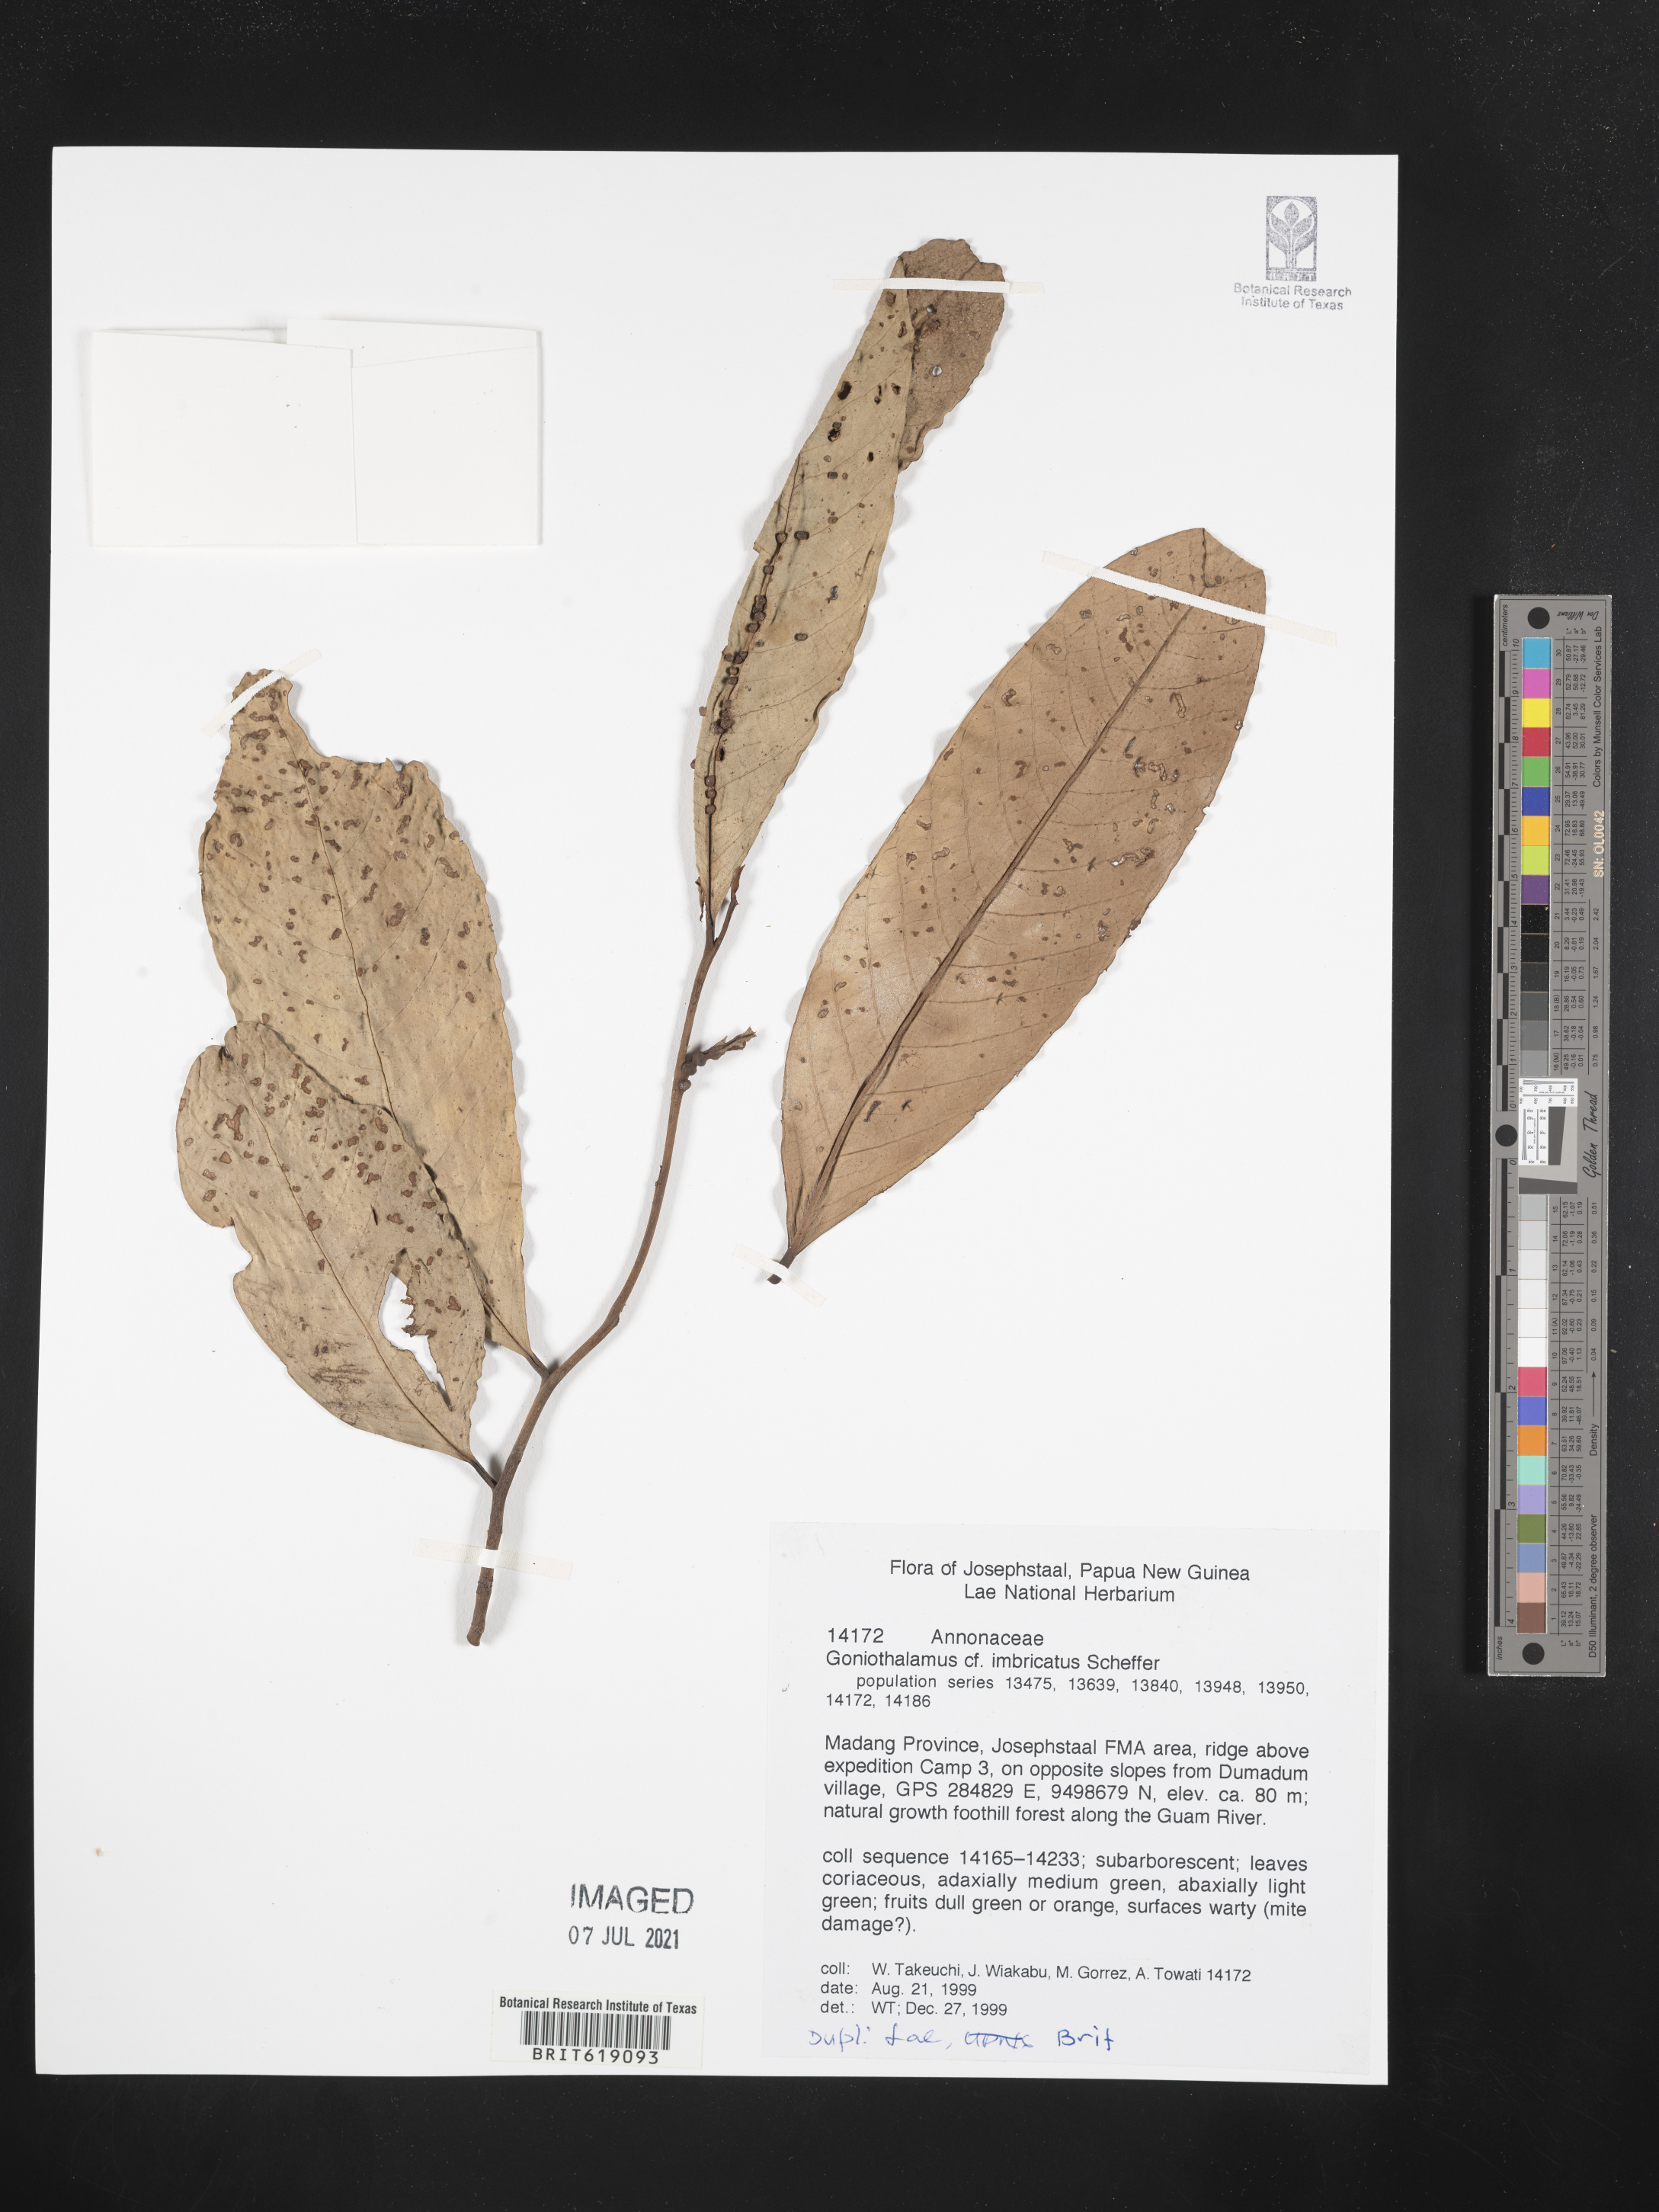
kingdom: Plantae
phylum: Tracheophyta
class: Magnoliopsida
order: Magnoliales
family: Annonaceae
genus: Goniothalamus
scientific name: Goniothalamus imbricatus
